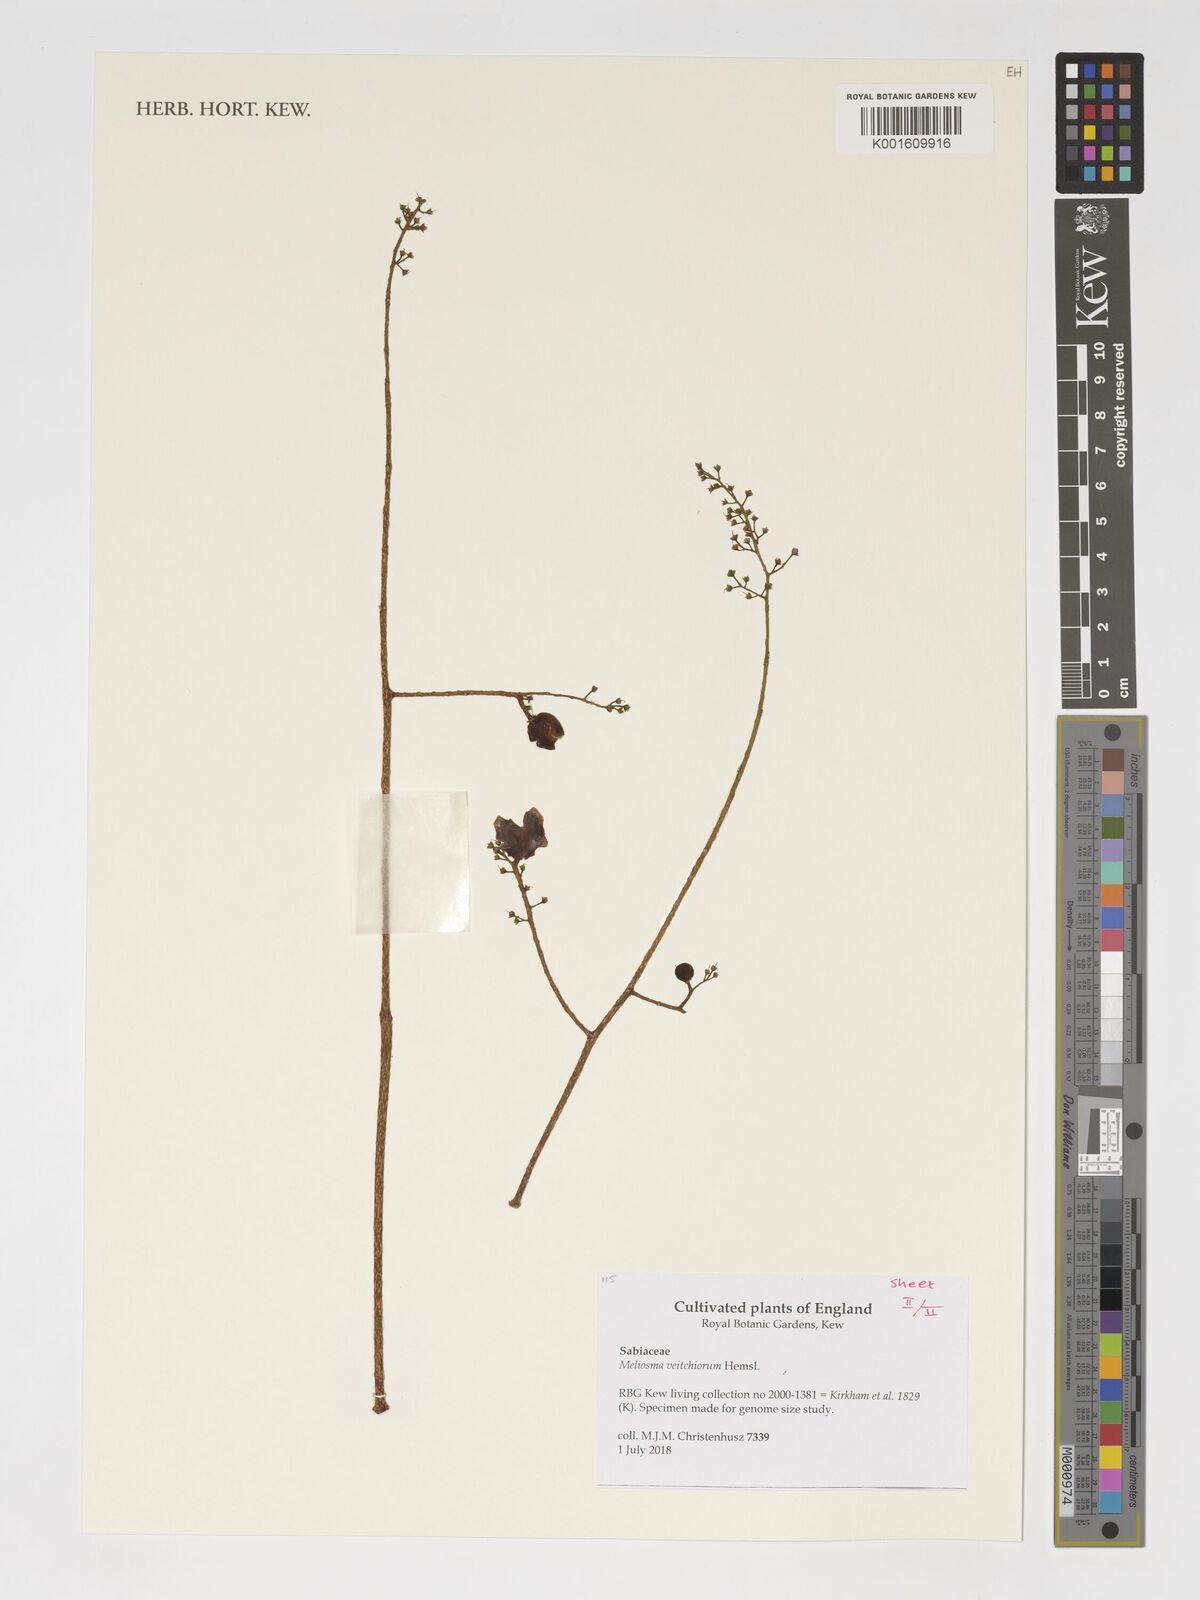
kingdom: Plantae
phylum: Tracheophyta
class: Magnoliopsida
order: Proteales
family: Sabiaceae
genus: Meliosma
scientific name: Meliosma veitchiorum
